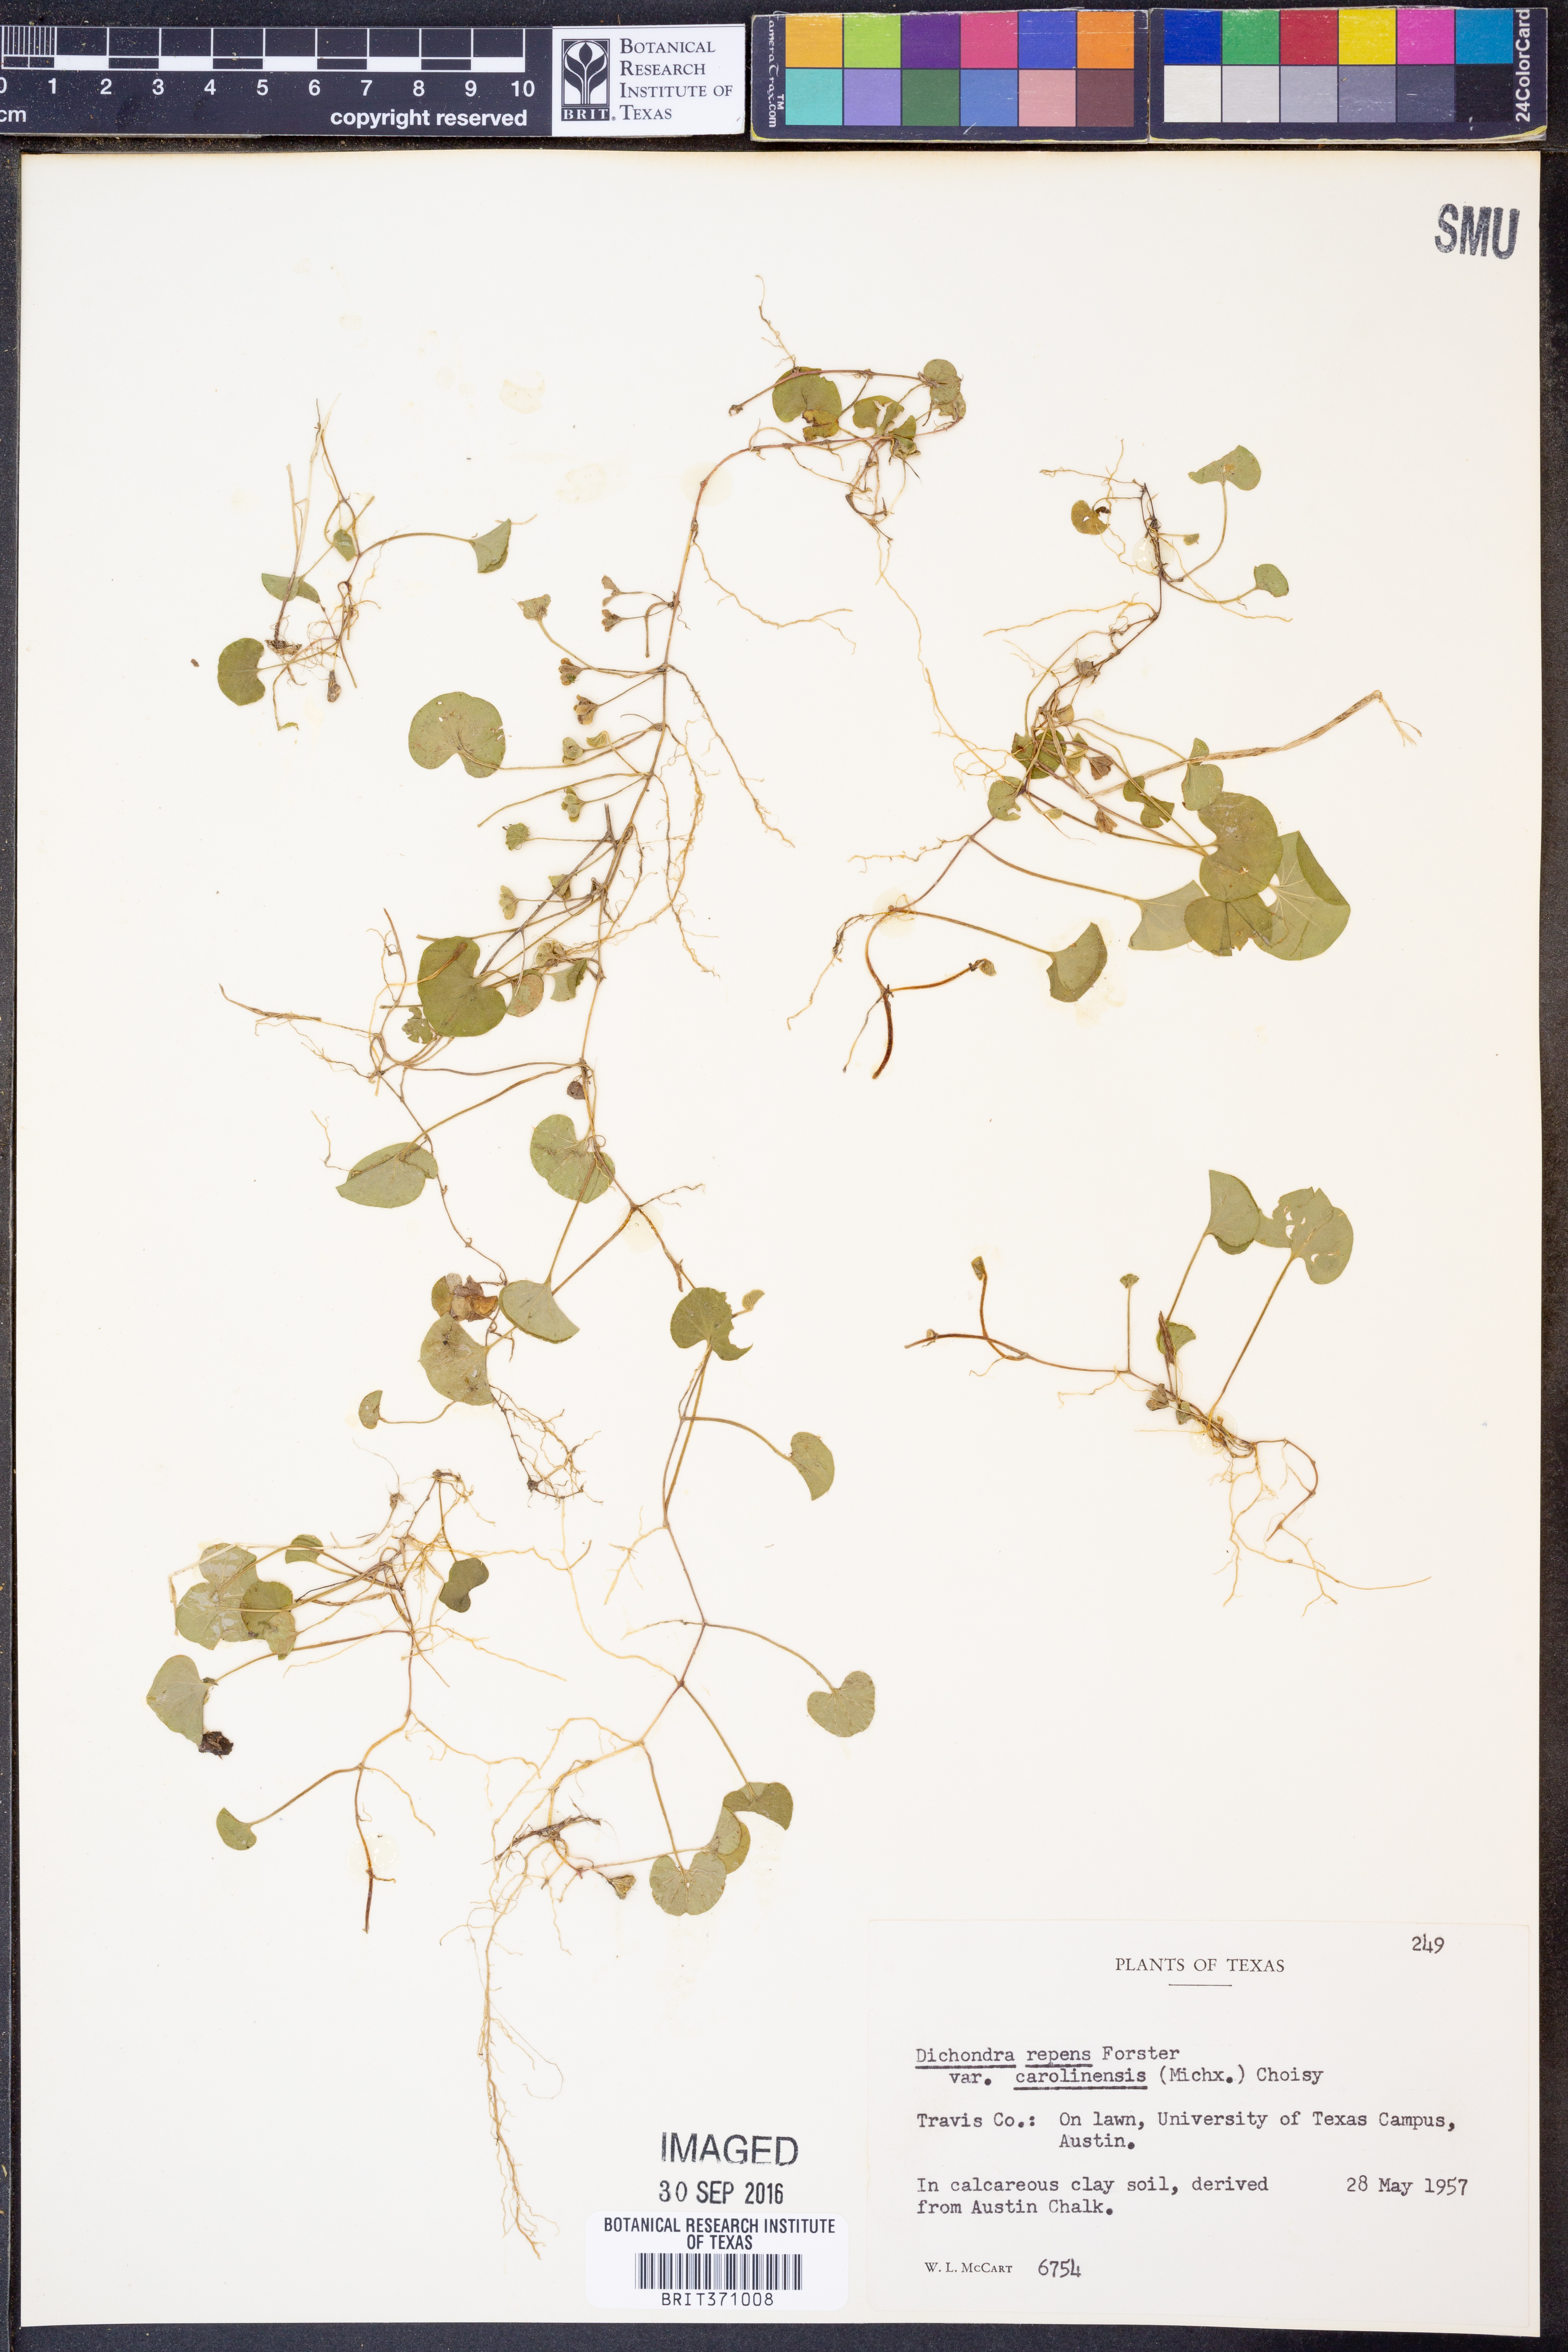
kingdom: Plantae
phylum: Tracheophyta
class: Magnoliopsida
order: Solanales
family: Convolvulaceae
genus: Dichondra
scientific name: Dichondra carolinensis
